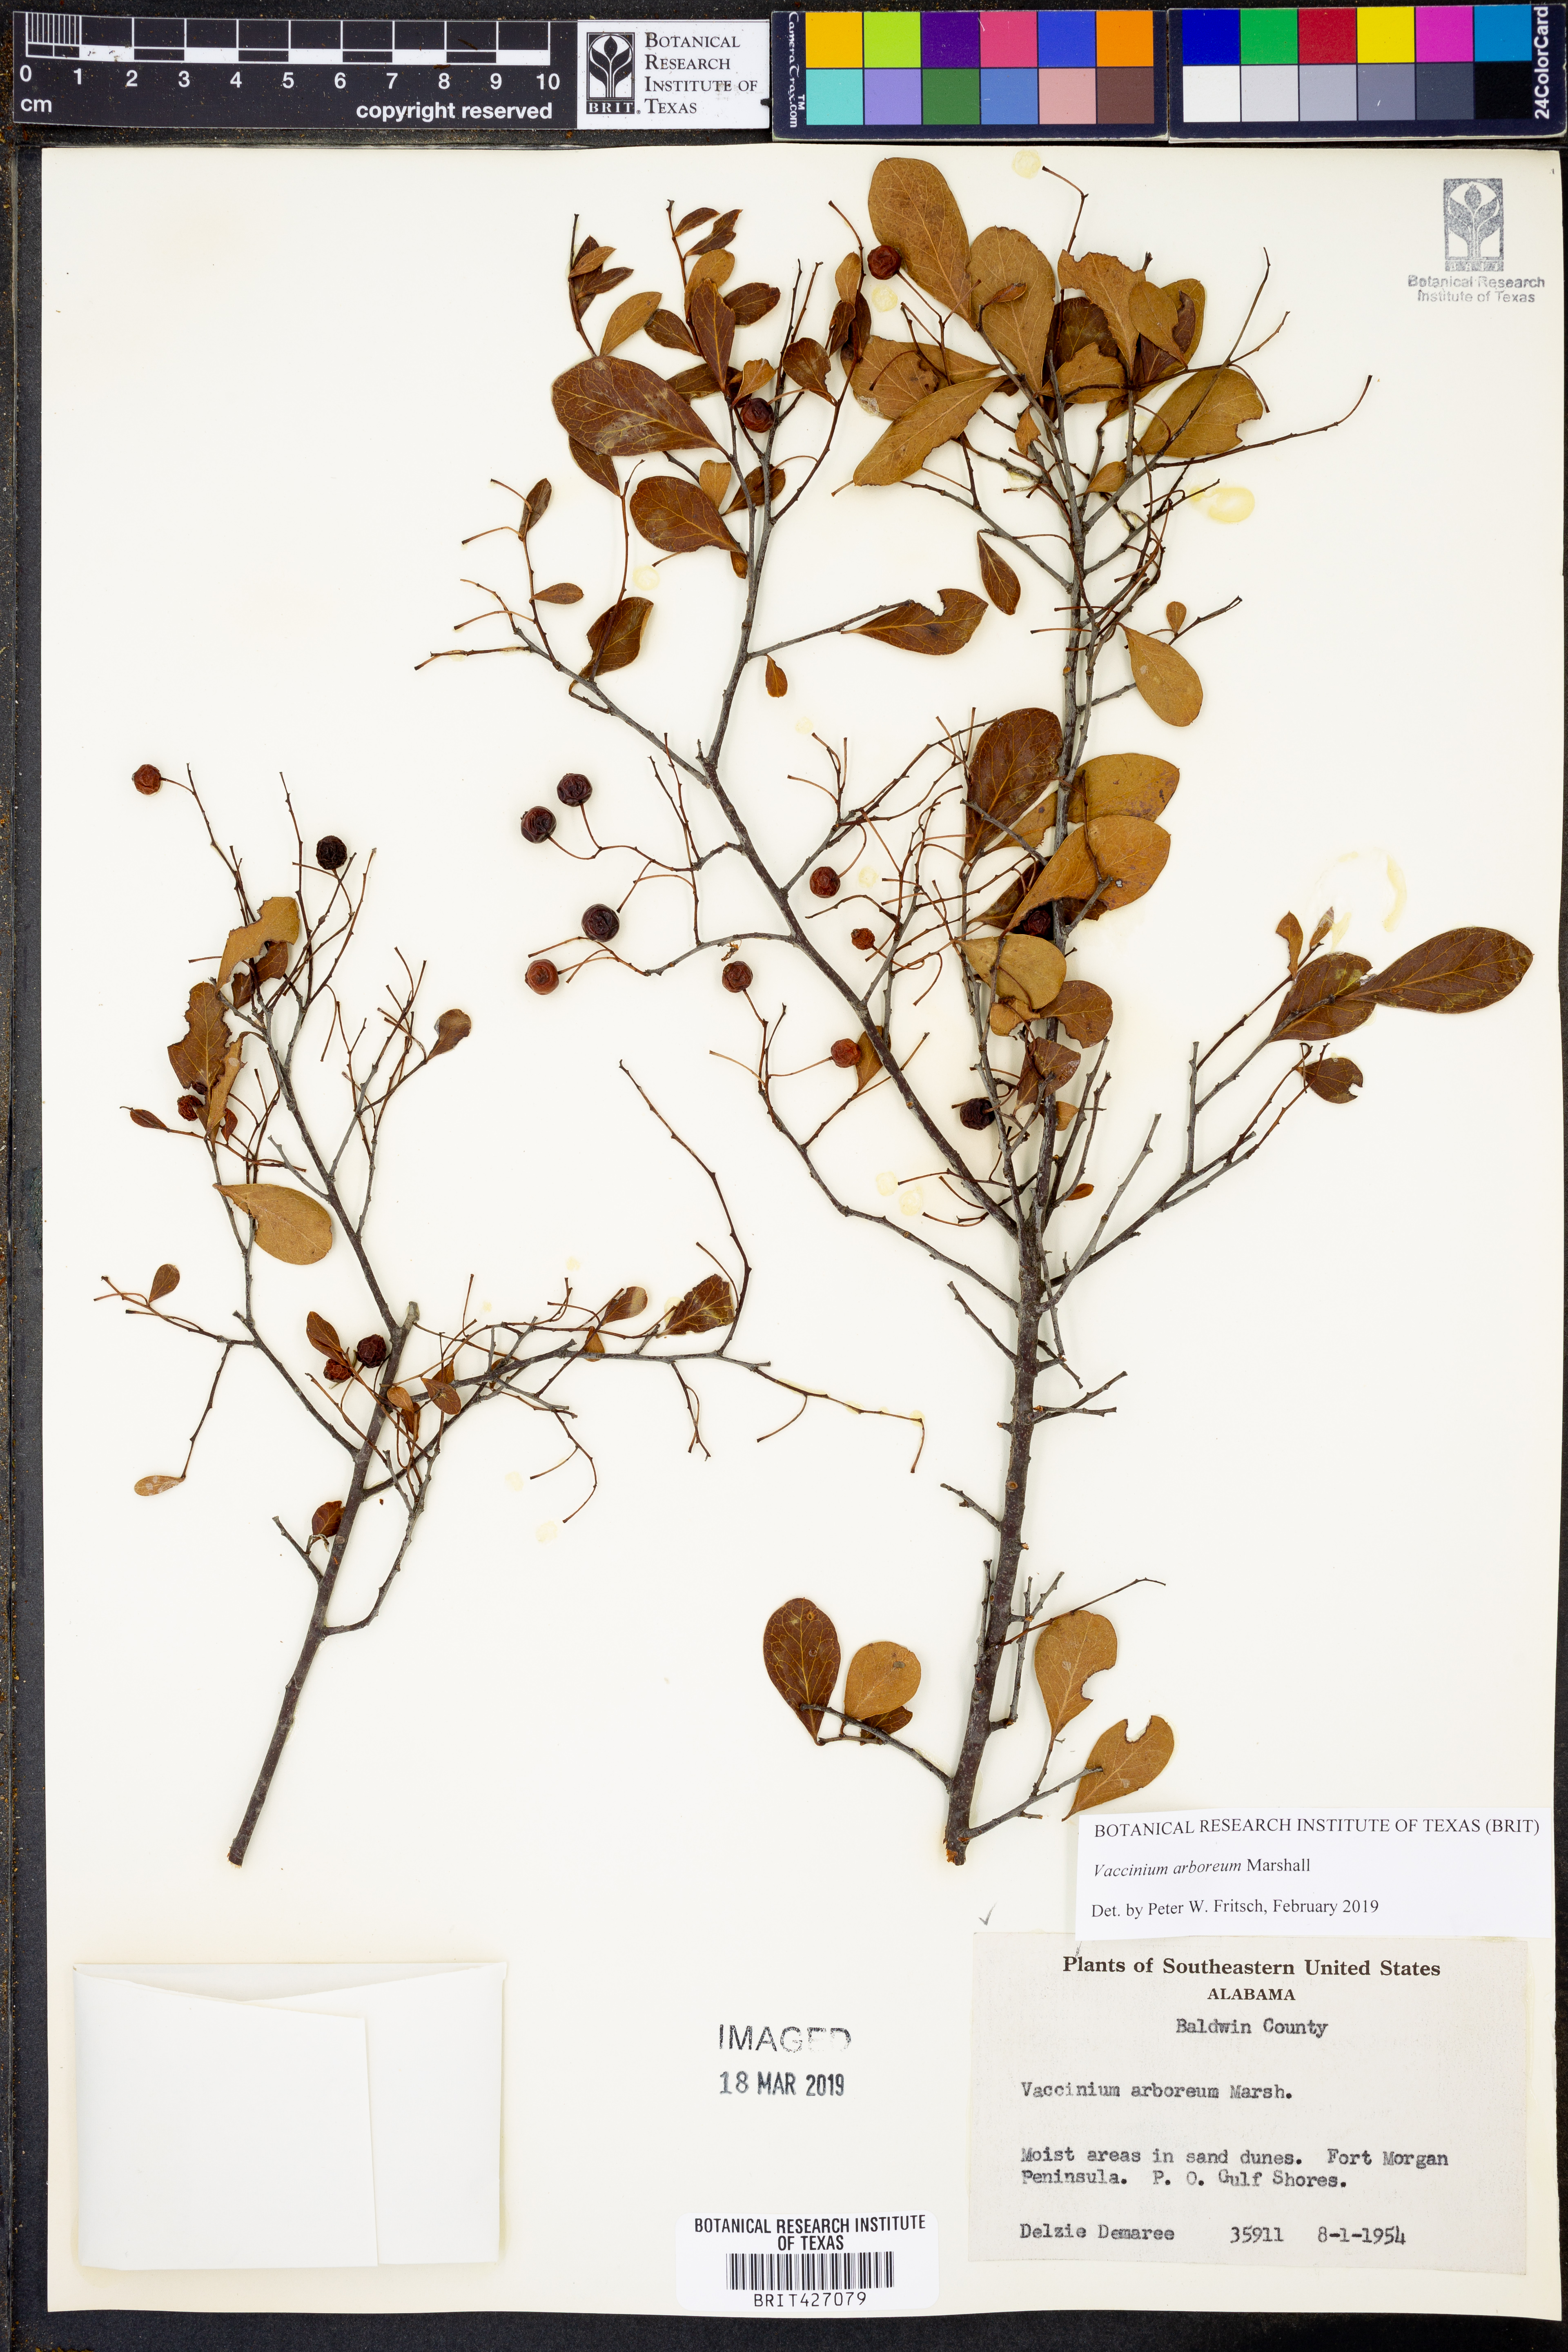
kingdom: Plantae
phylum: Tracheophyta
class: Magnoliopsida
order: Ericales
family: Ericaceae
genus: Vaccinium
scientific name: Vaccinium arboreum
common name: Farkleberry
